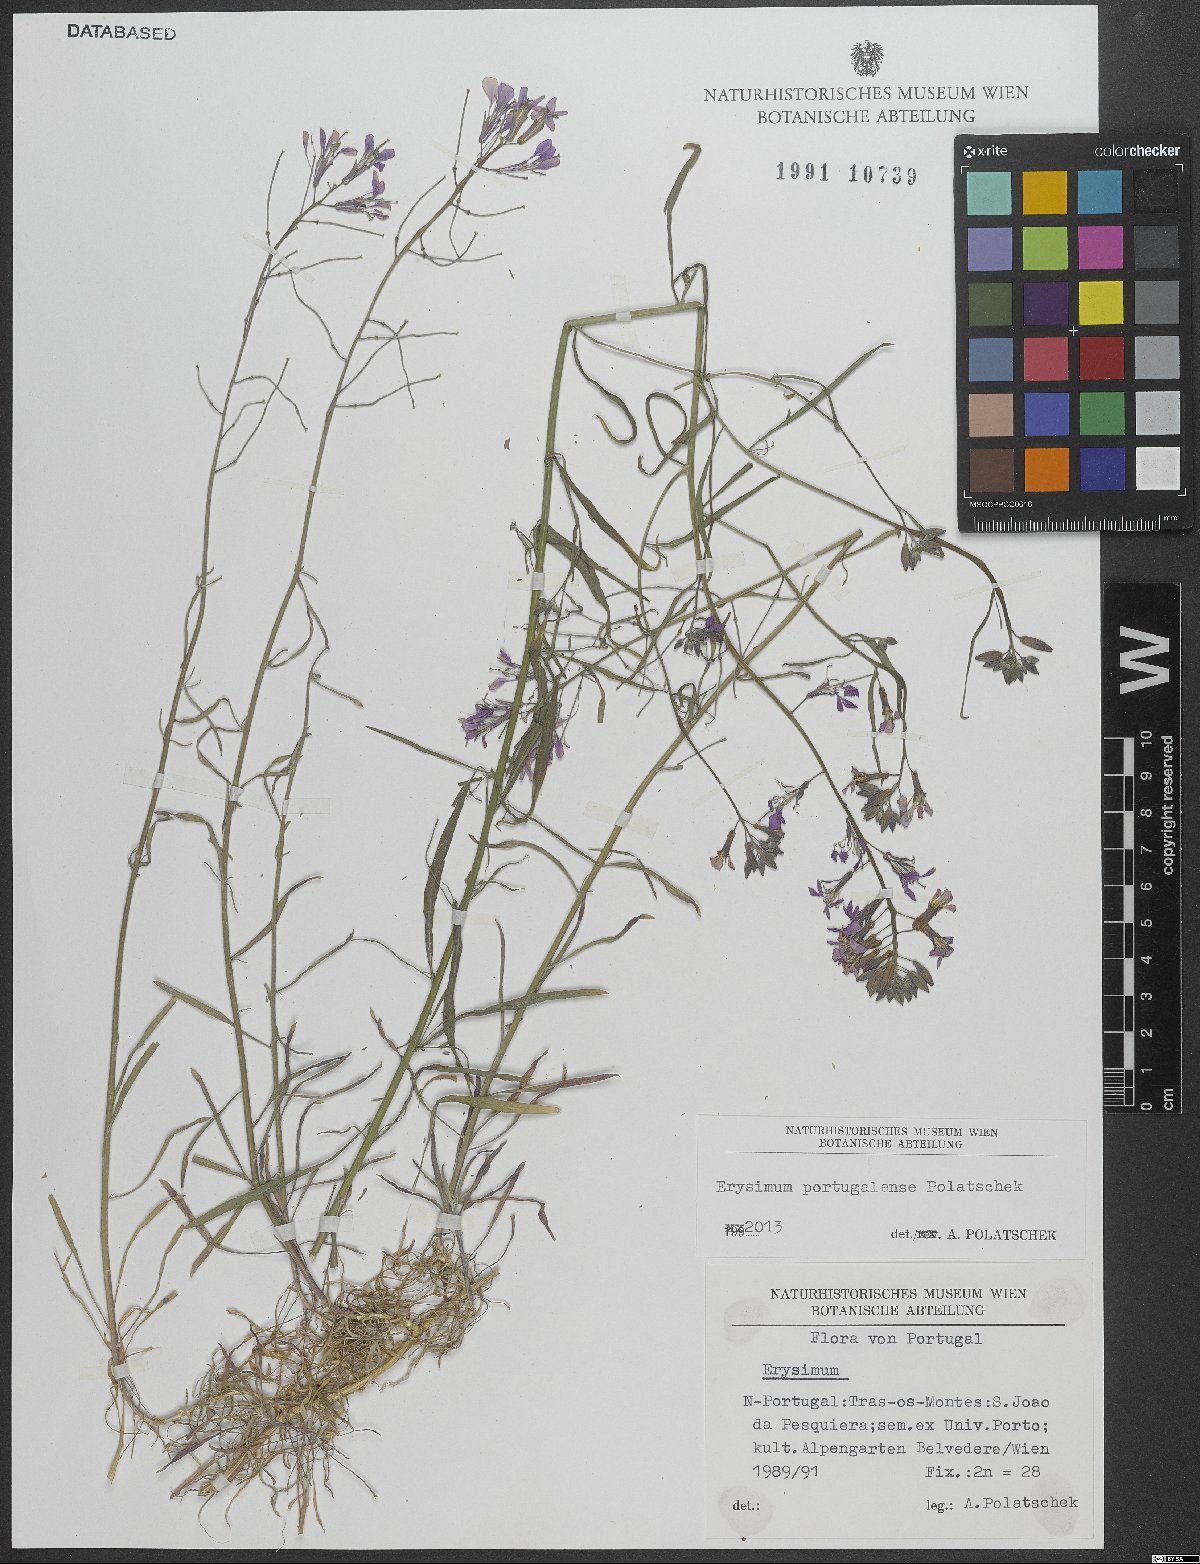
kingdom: Plantae
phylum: Tracheophyta
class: Magnoliopsida
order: Brassicales
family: Brassicaceae
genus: Erysimum
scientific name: Erysimum portugalense
